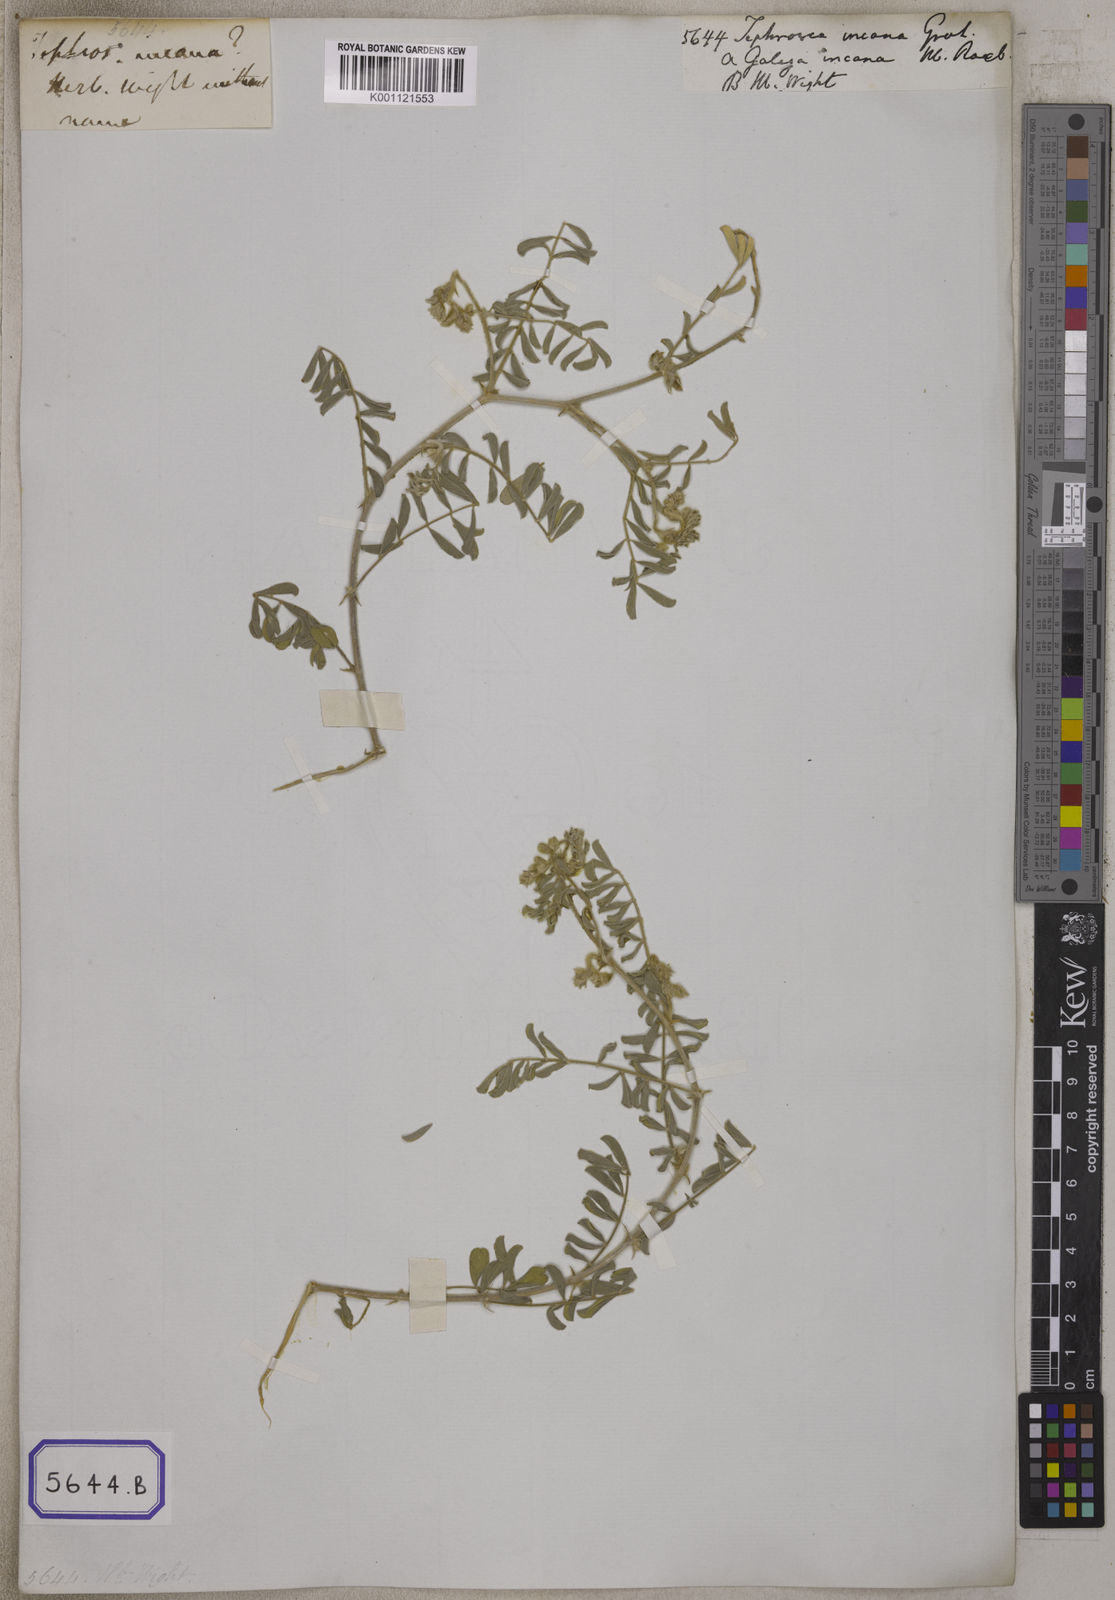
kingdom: Plantae
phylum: Tracheophyta
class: Magnoliopsida
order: Fabales
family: Fabaceae
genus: Tephrosia
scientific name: Tephrosia
